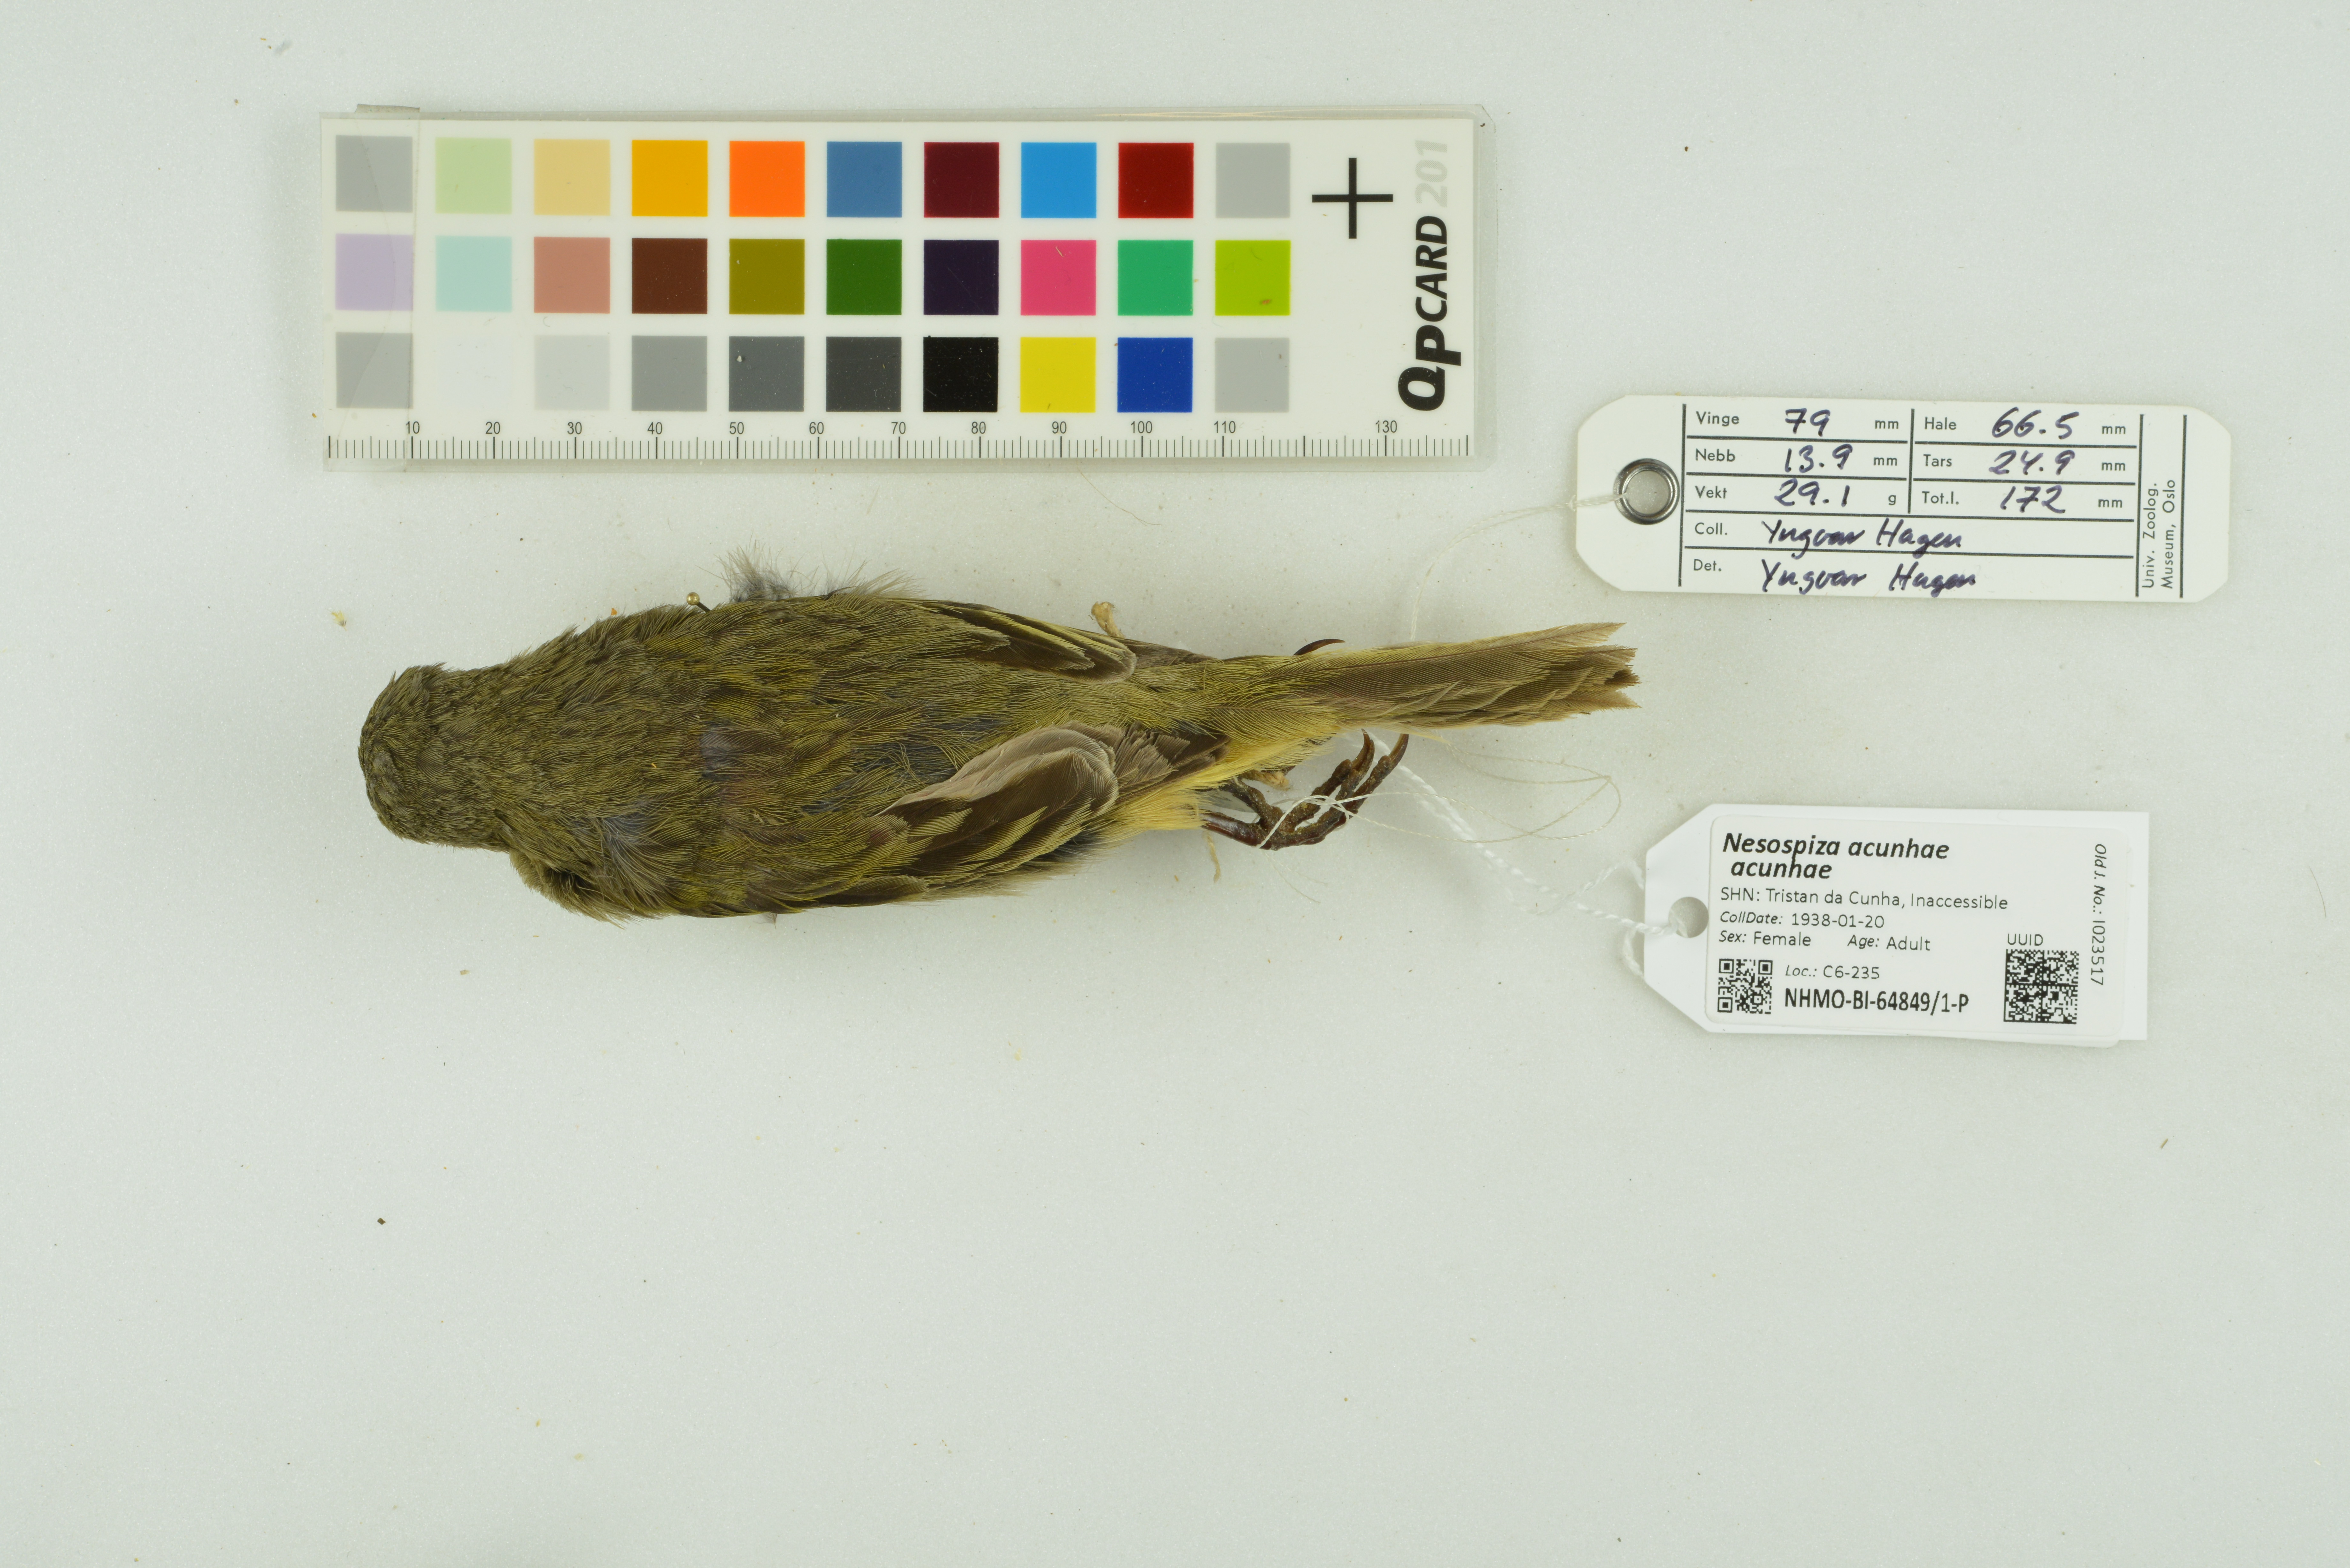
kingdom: Animalia
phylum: Chordata
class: Aves
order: Passeriformes
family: Thraupidae
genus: Nesospiza
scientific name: Nesospiza acunhae
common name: Inaccessible island finch
